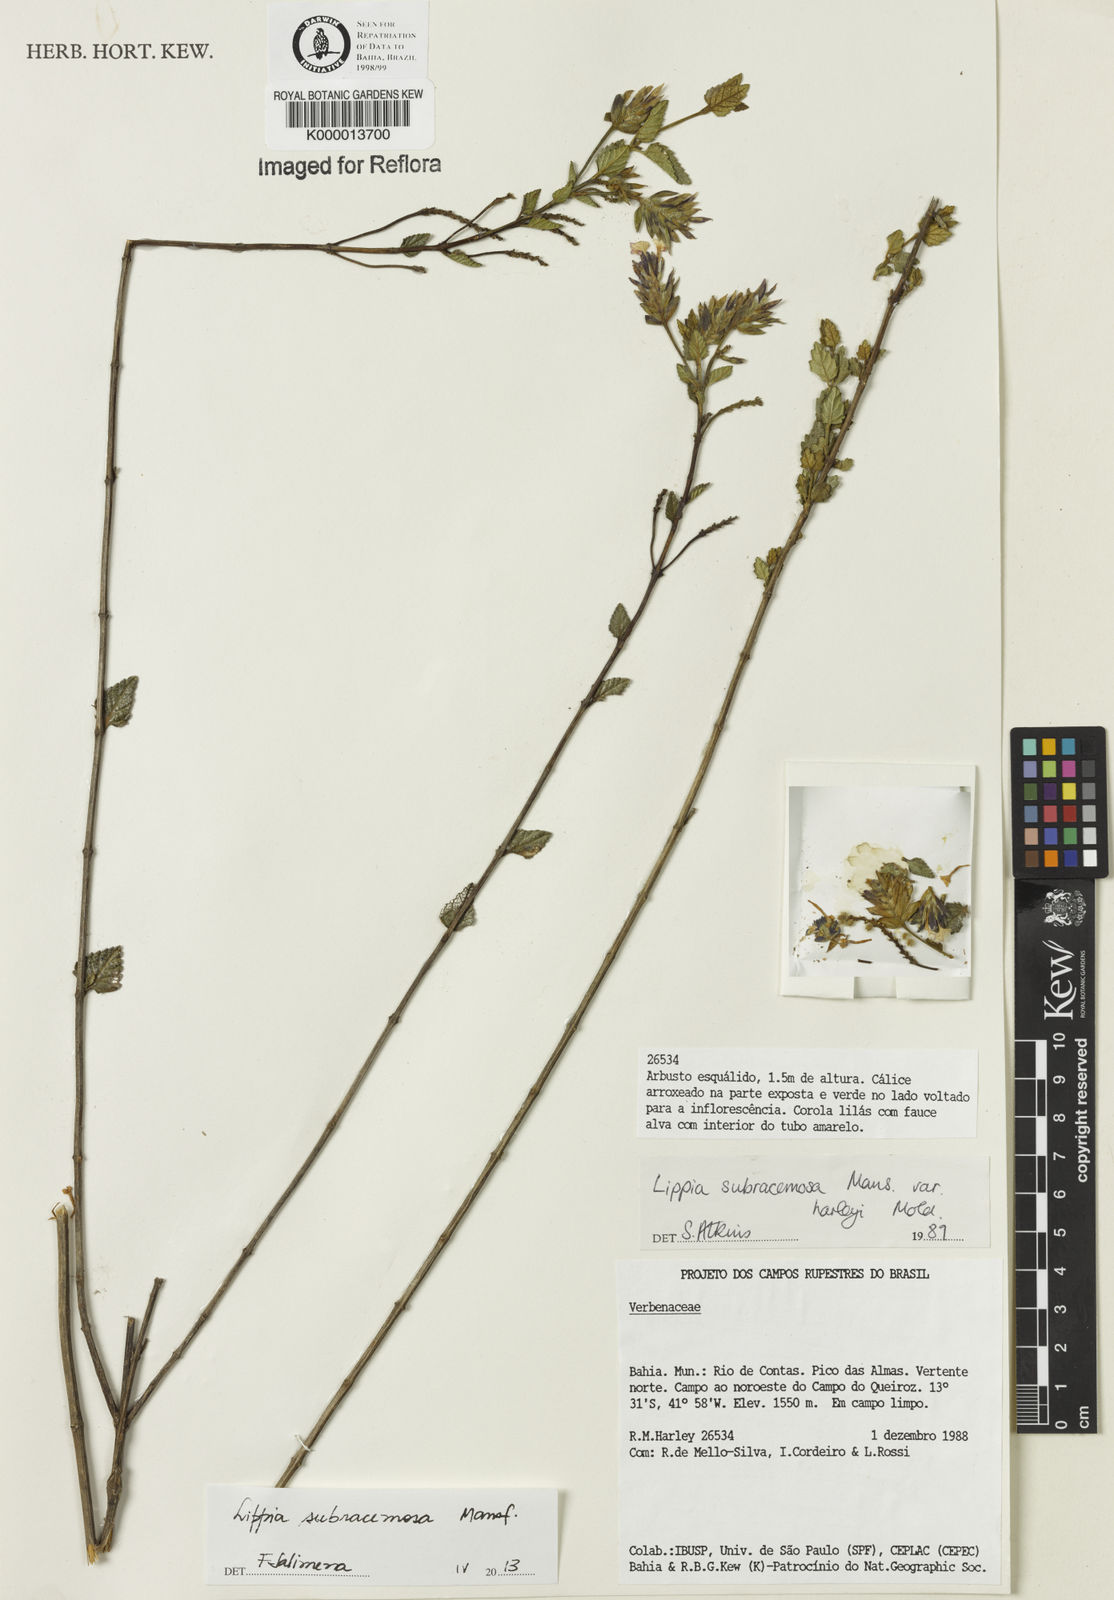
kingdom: Plantae
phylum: Tracheophyta
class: Magnoliopsida
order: Lamiales
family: Verbenaceae
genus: Lippia
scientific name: Lippia deltata
